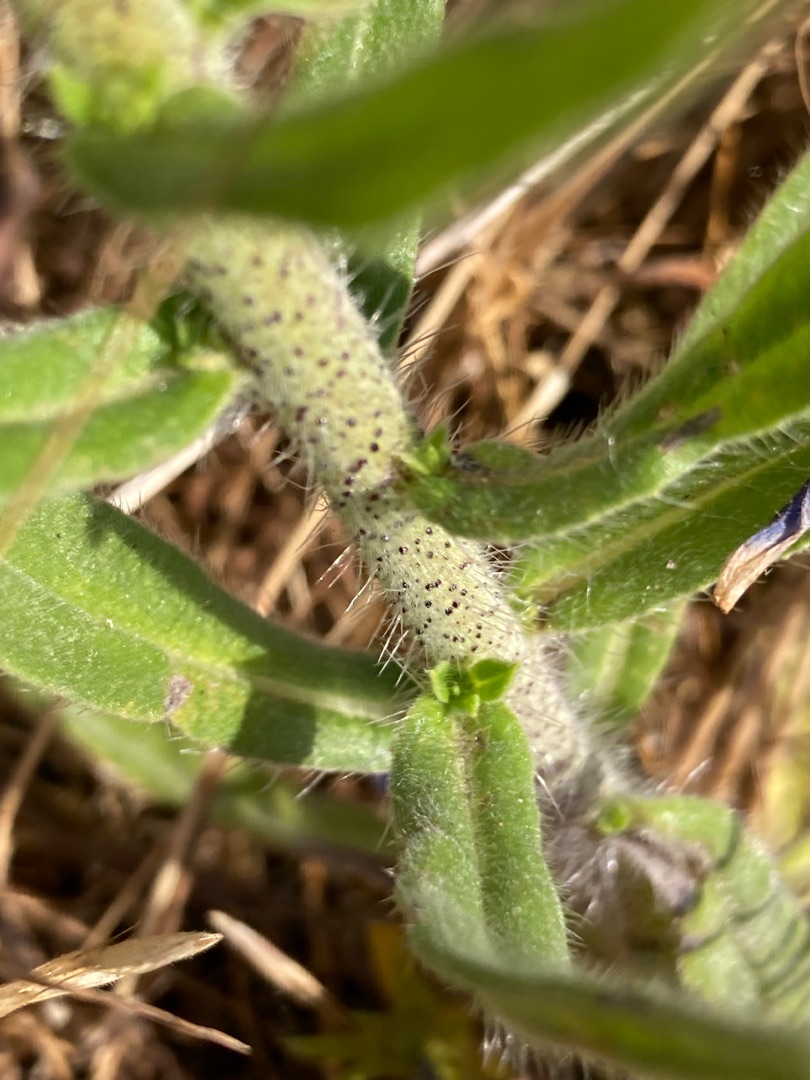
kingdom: Plantae
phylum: Tracheophyta
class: Magnoliopsida
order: Boraginales
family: Boraginaceae
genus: Echium
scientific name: Echium vulgare
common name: Slangehoved
